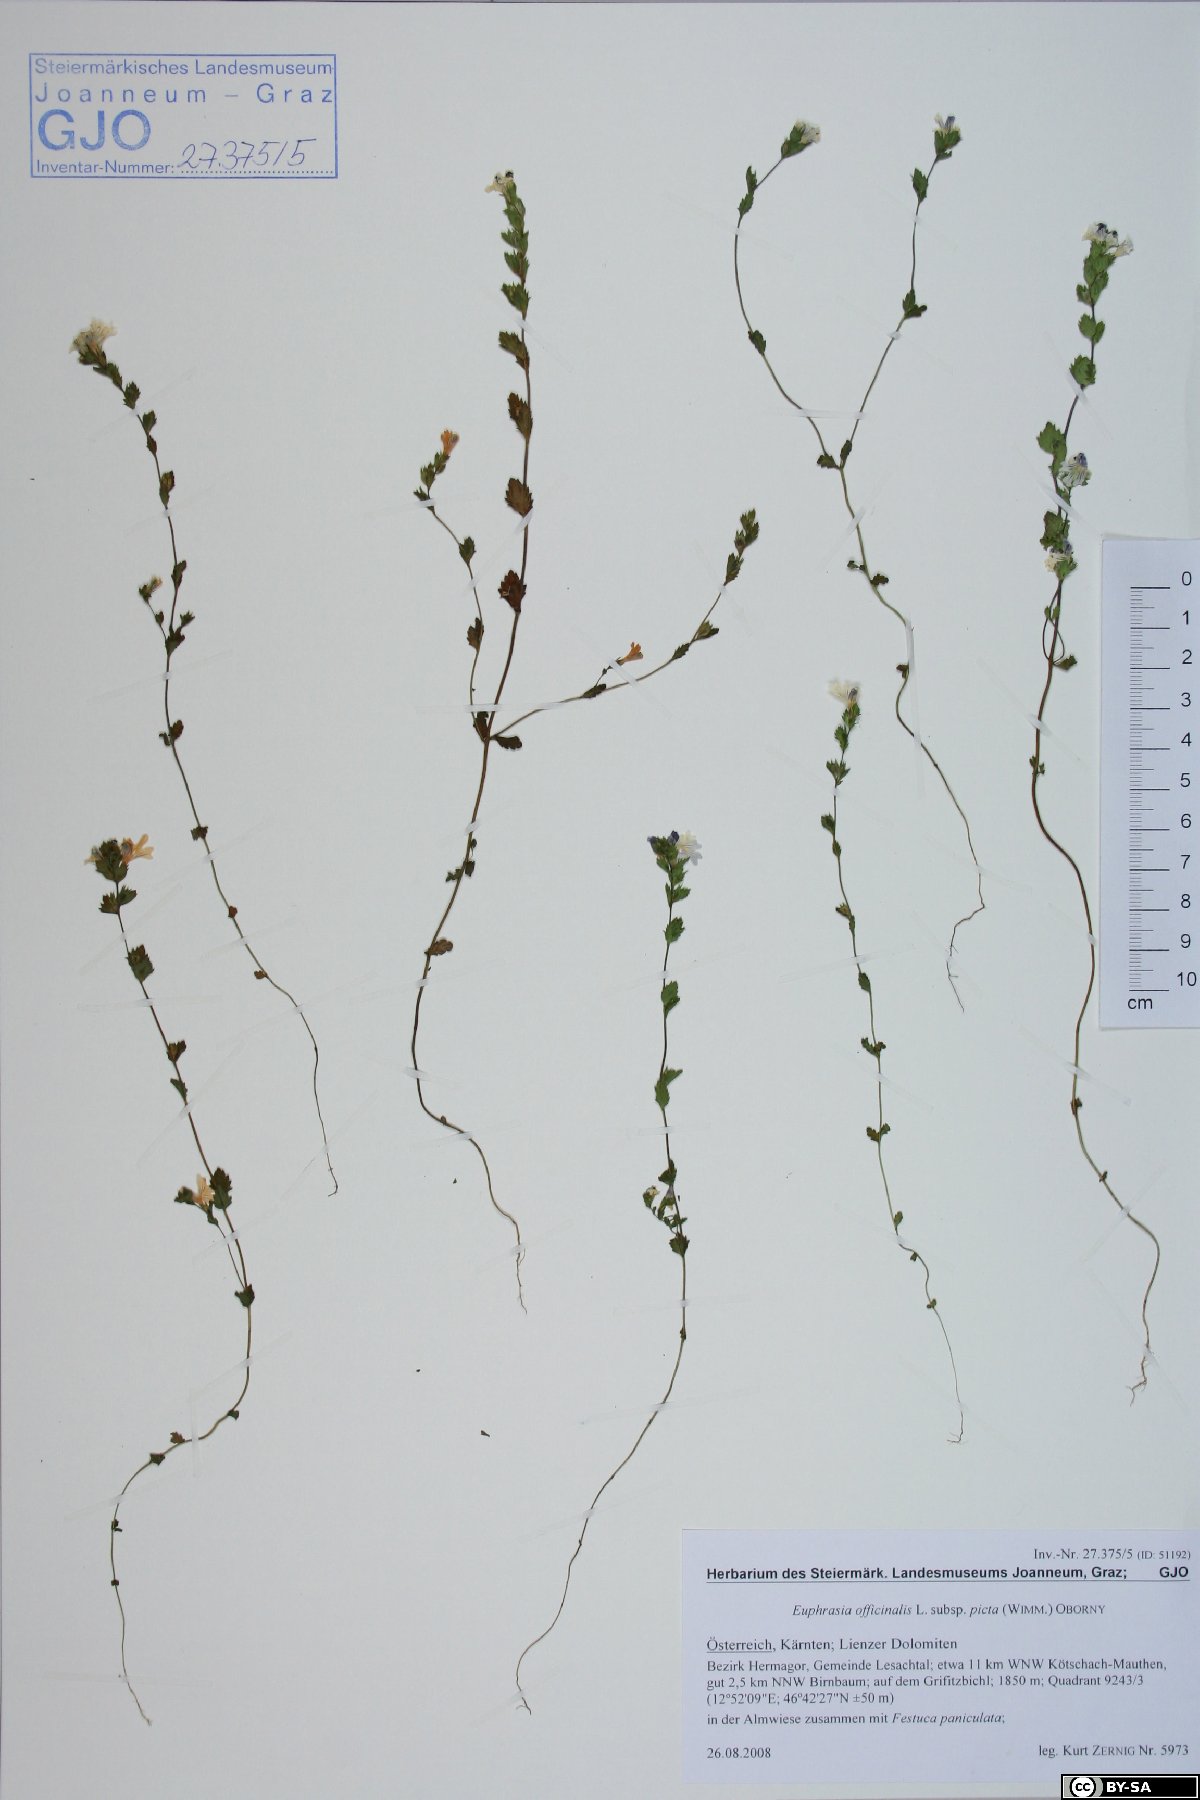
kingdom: Plantae
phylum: Tracheophyta
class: Magnoliopsida
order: Lamiales
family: Orobanchaceae
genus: Euphrasia
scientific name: Euphrasia officinalis
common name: Eyebright
